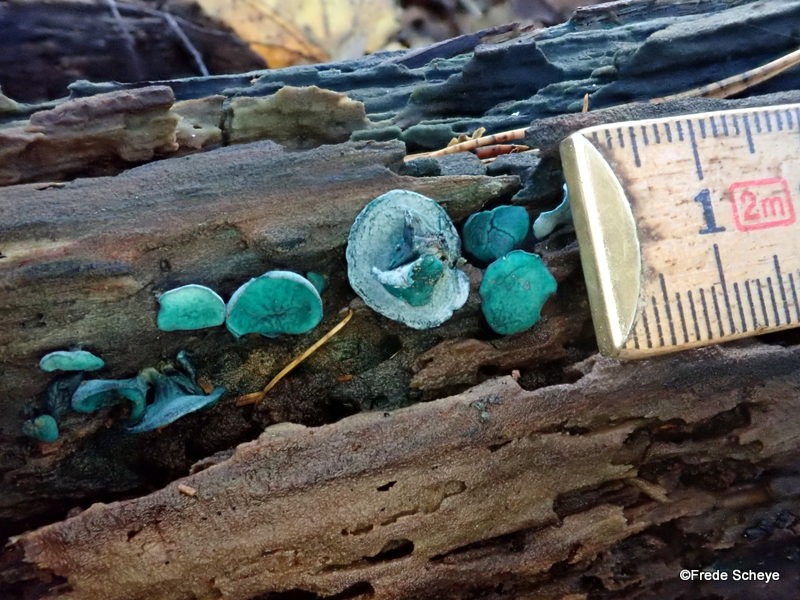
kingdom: Fungi
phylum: Ascomycota
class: Leotiomycetes
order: Helotiales
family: Chlorociboriaceae
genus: Chlorociboria
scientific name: Chlorociboria aeruginascens
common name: almindelig grønskive
